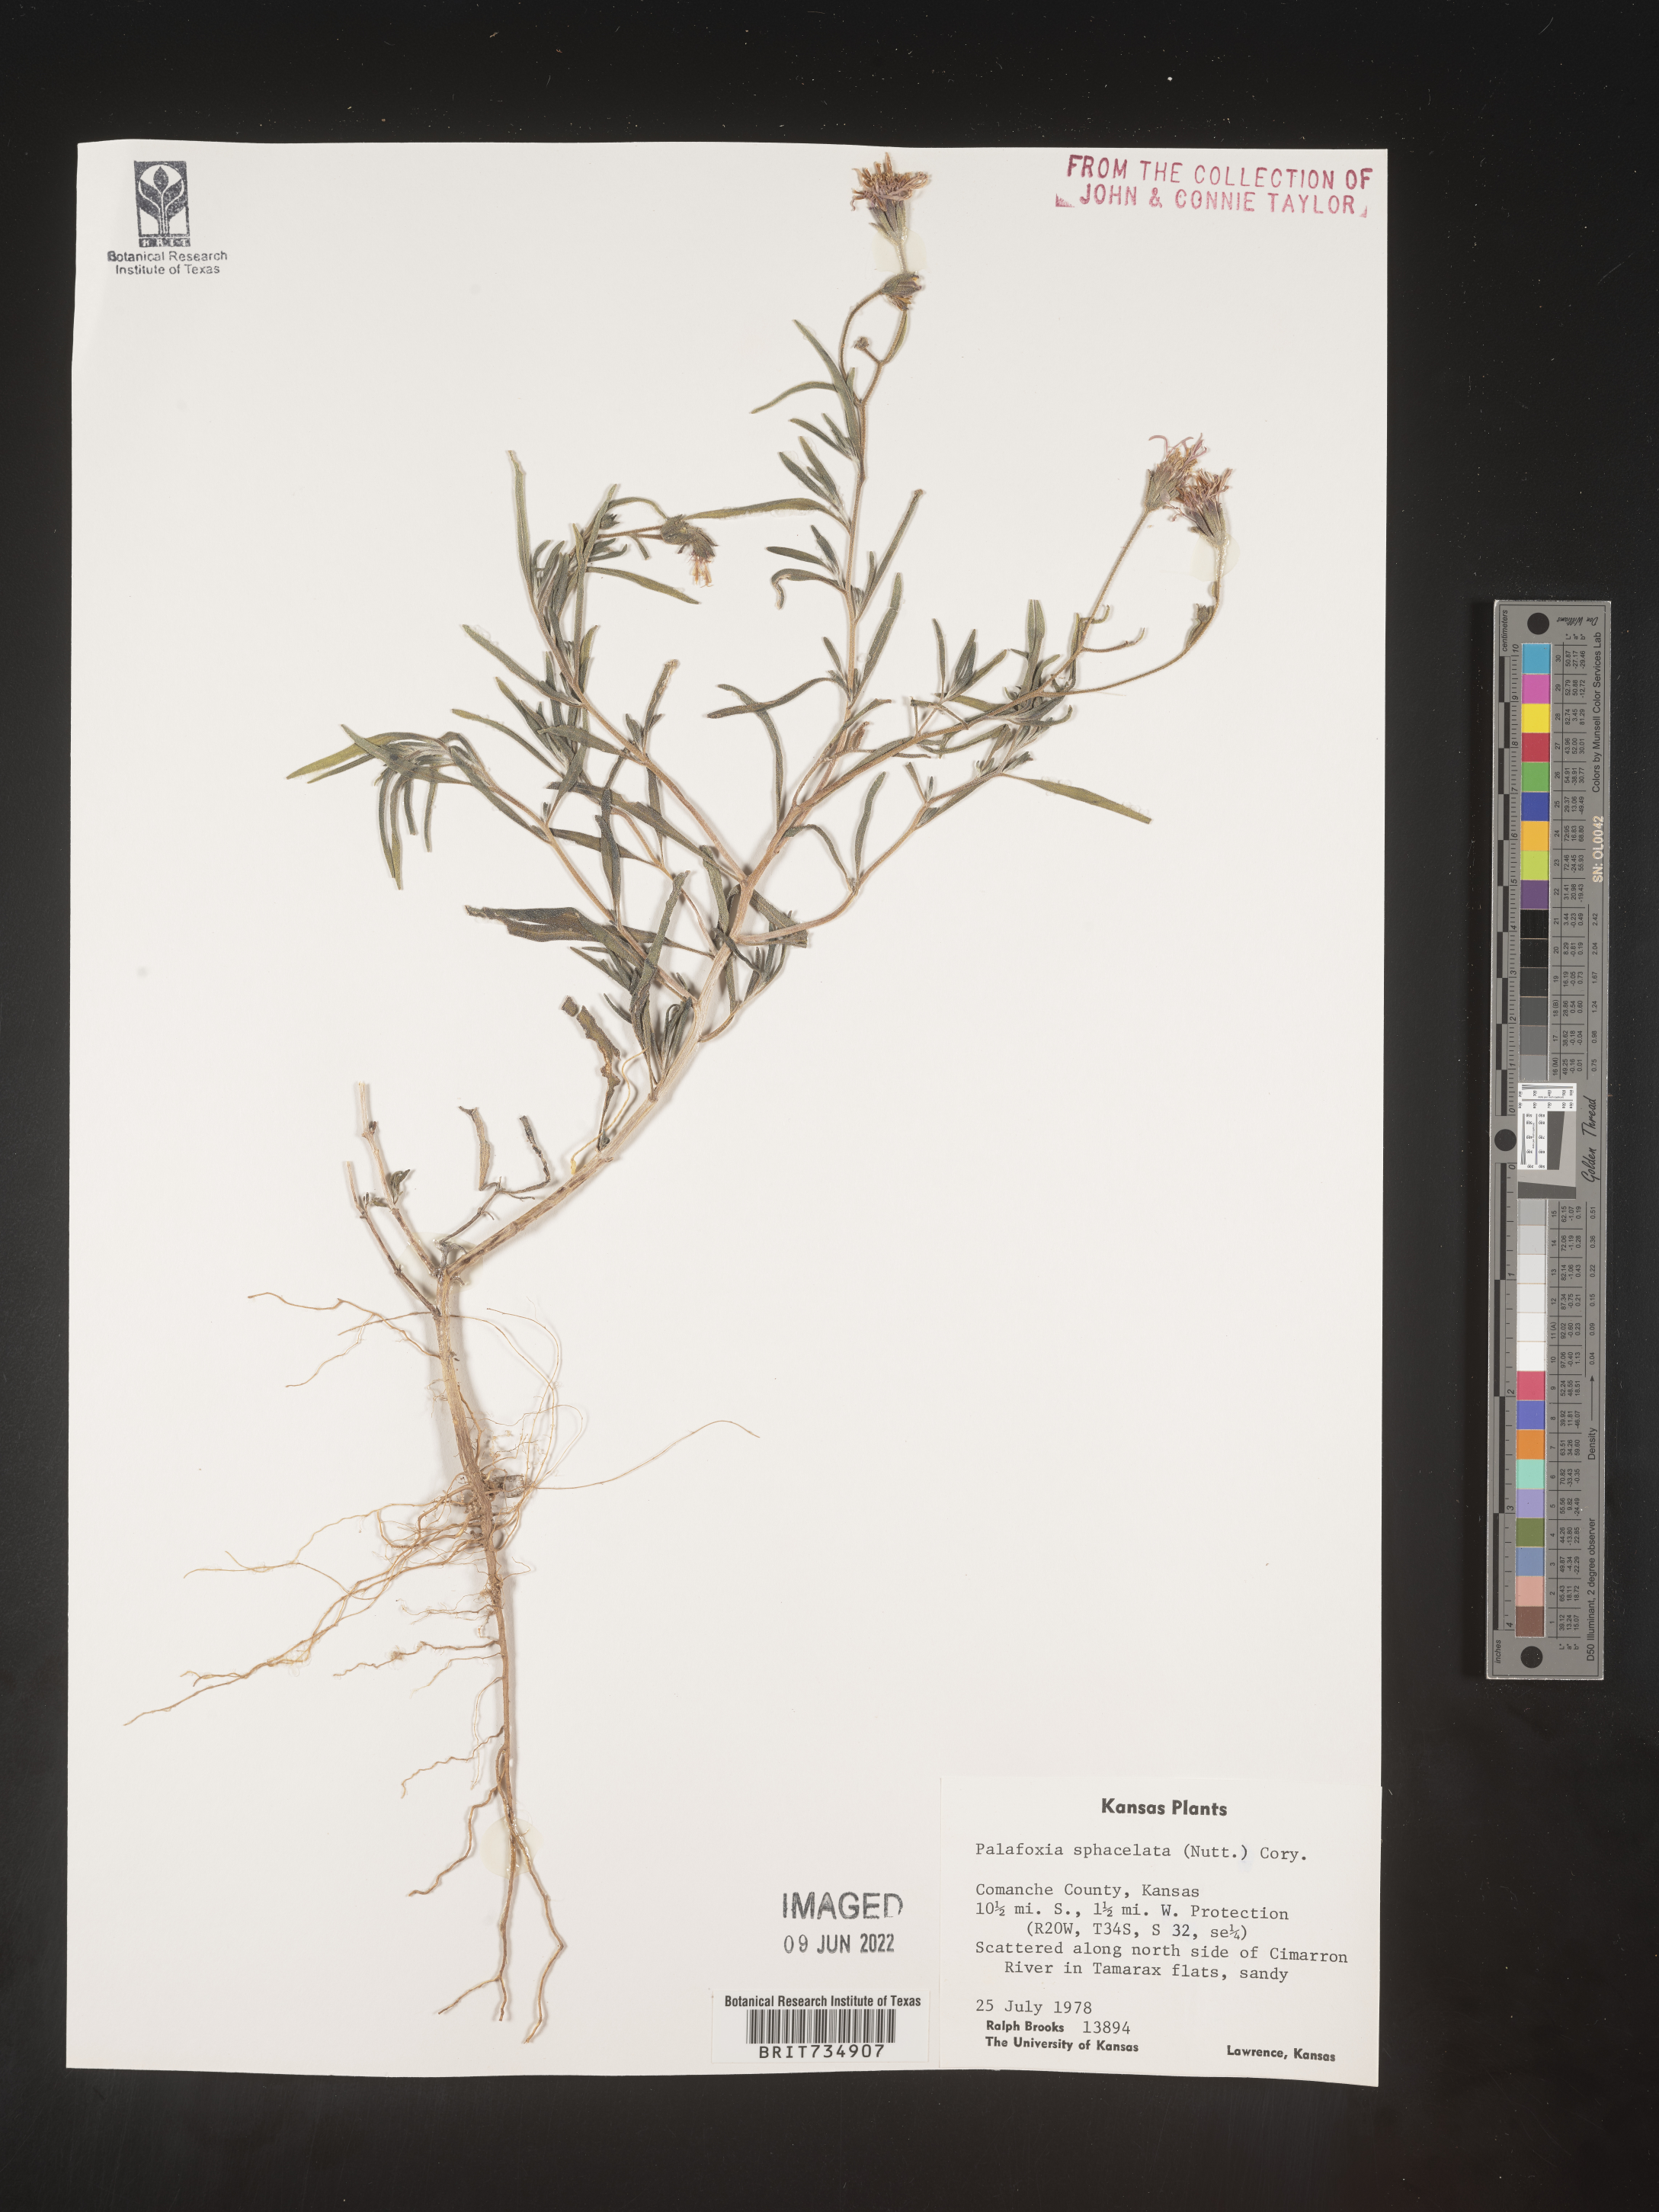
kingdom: Plantae
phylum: Tracheophyta
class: Magnoliopsida
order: Asterales
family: Asteraceae
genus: Palafoxia
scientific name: Palafoxia sphacelata
